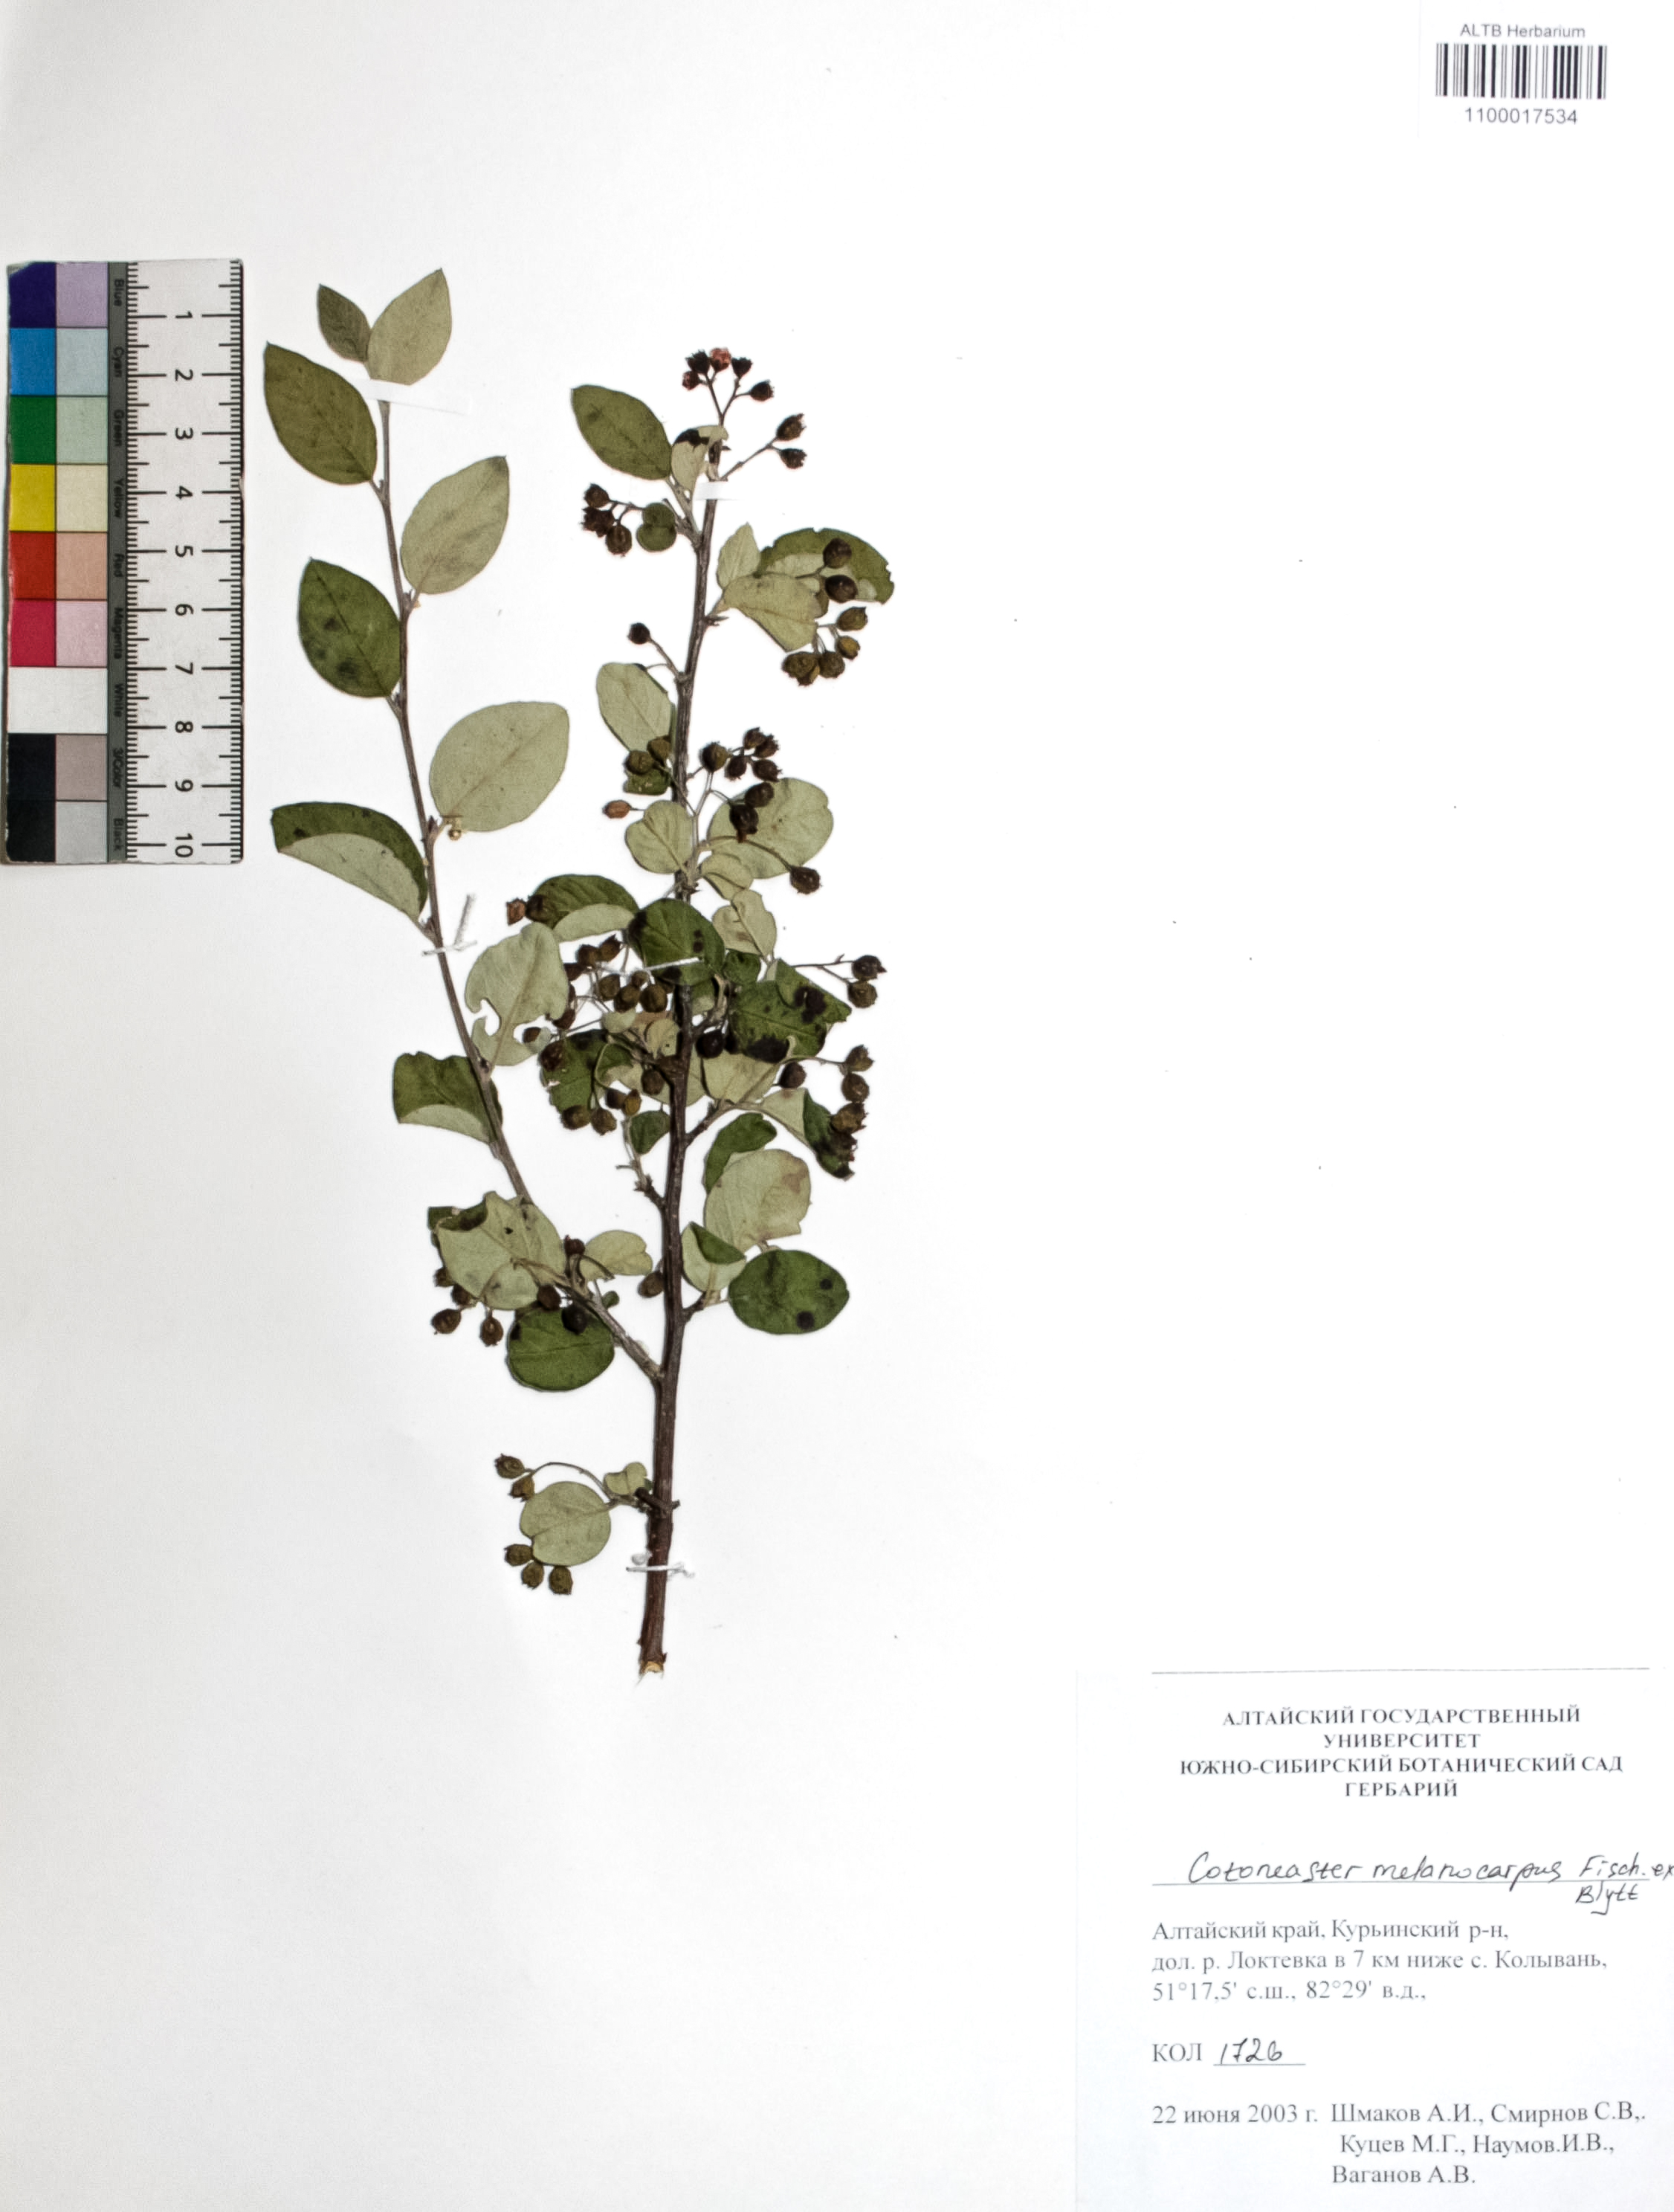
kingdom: Plantae
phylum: Tracheophyta
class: Magnoliopsida
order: Rosales
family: Rosaceae
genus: Cotoneaster
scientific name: Cotoneaster niger
